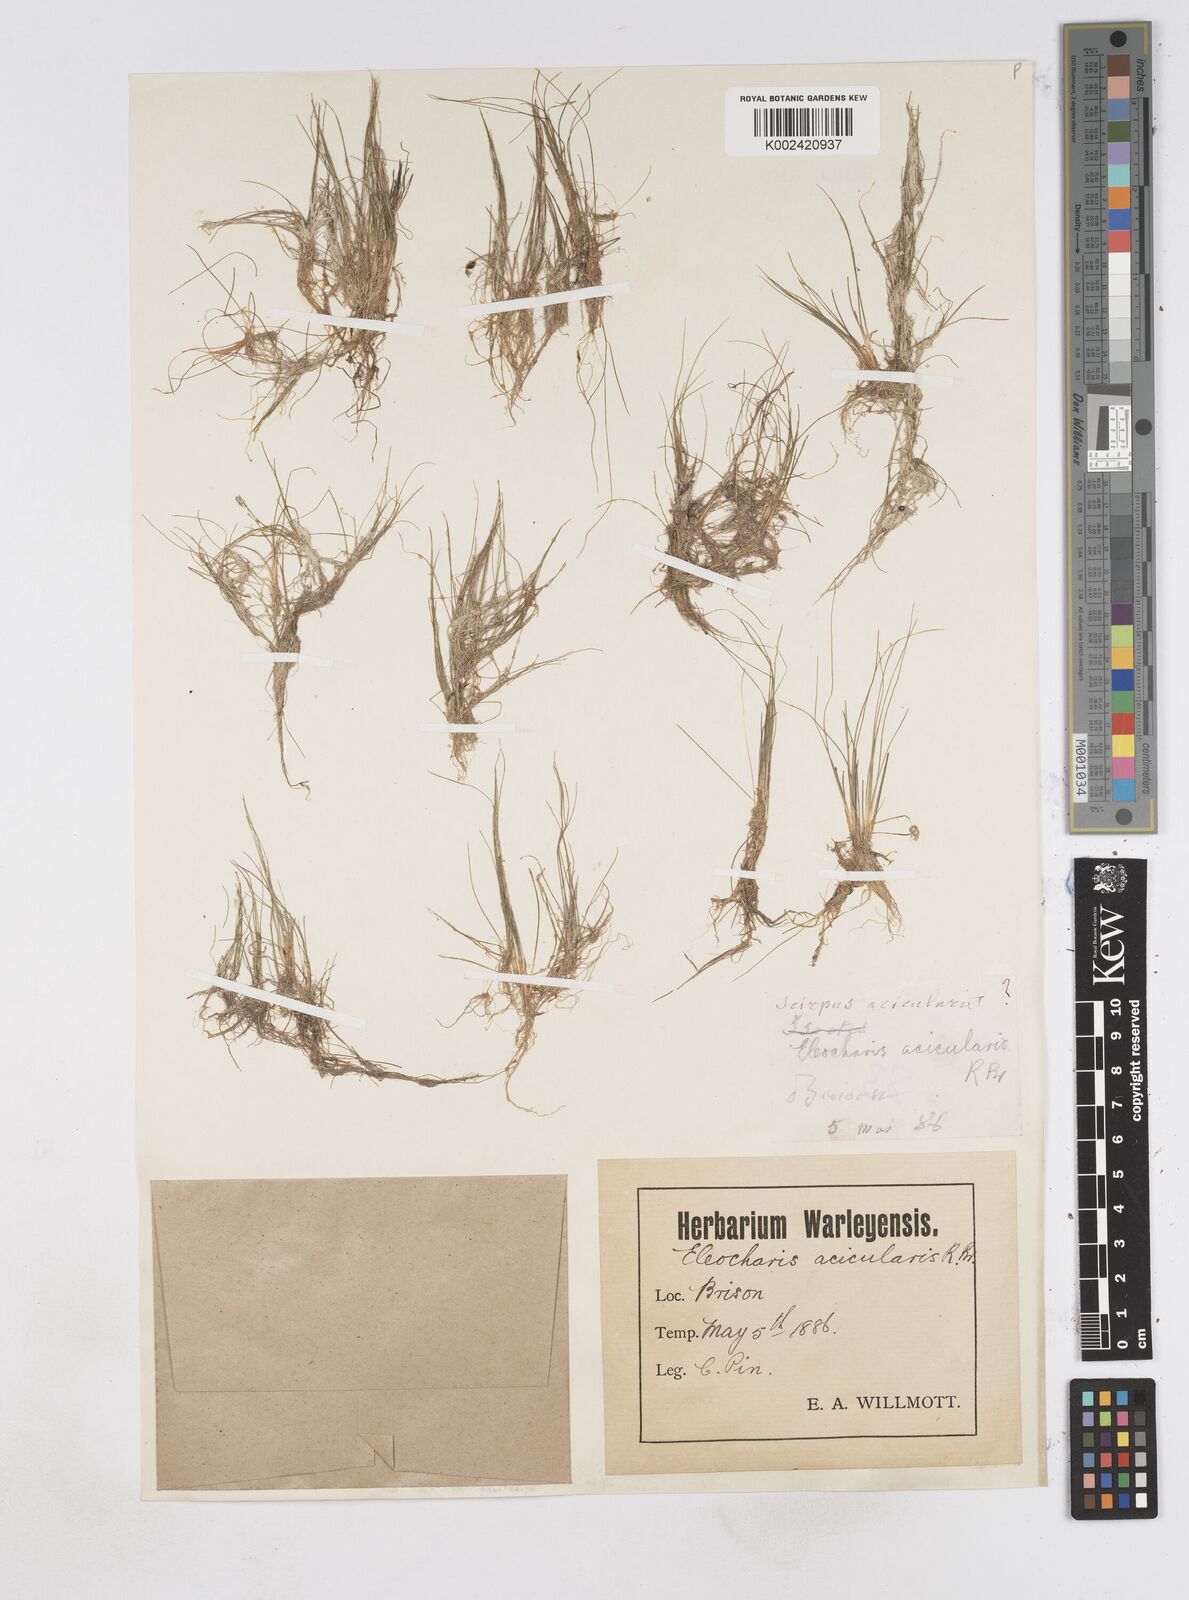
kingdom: Plantae
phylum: Tracheophyta
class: Liliopsida
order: Poales
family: Cyperaceae
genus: Eleocharis
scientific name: Eleocharis acicularis
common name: Needle spike-rush
